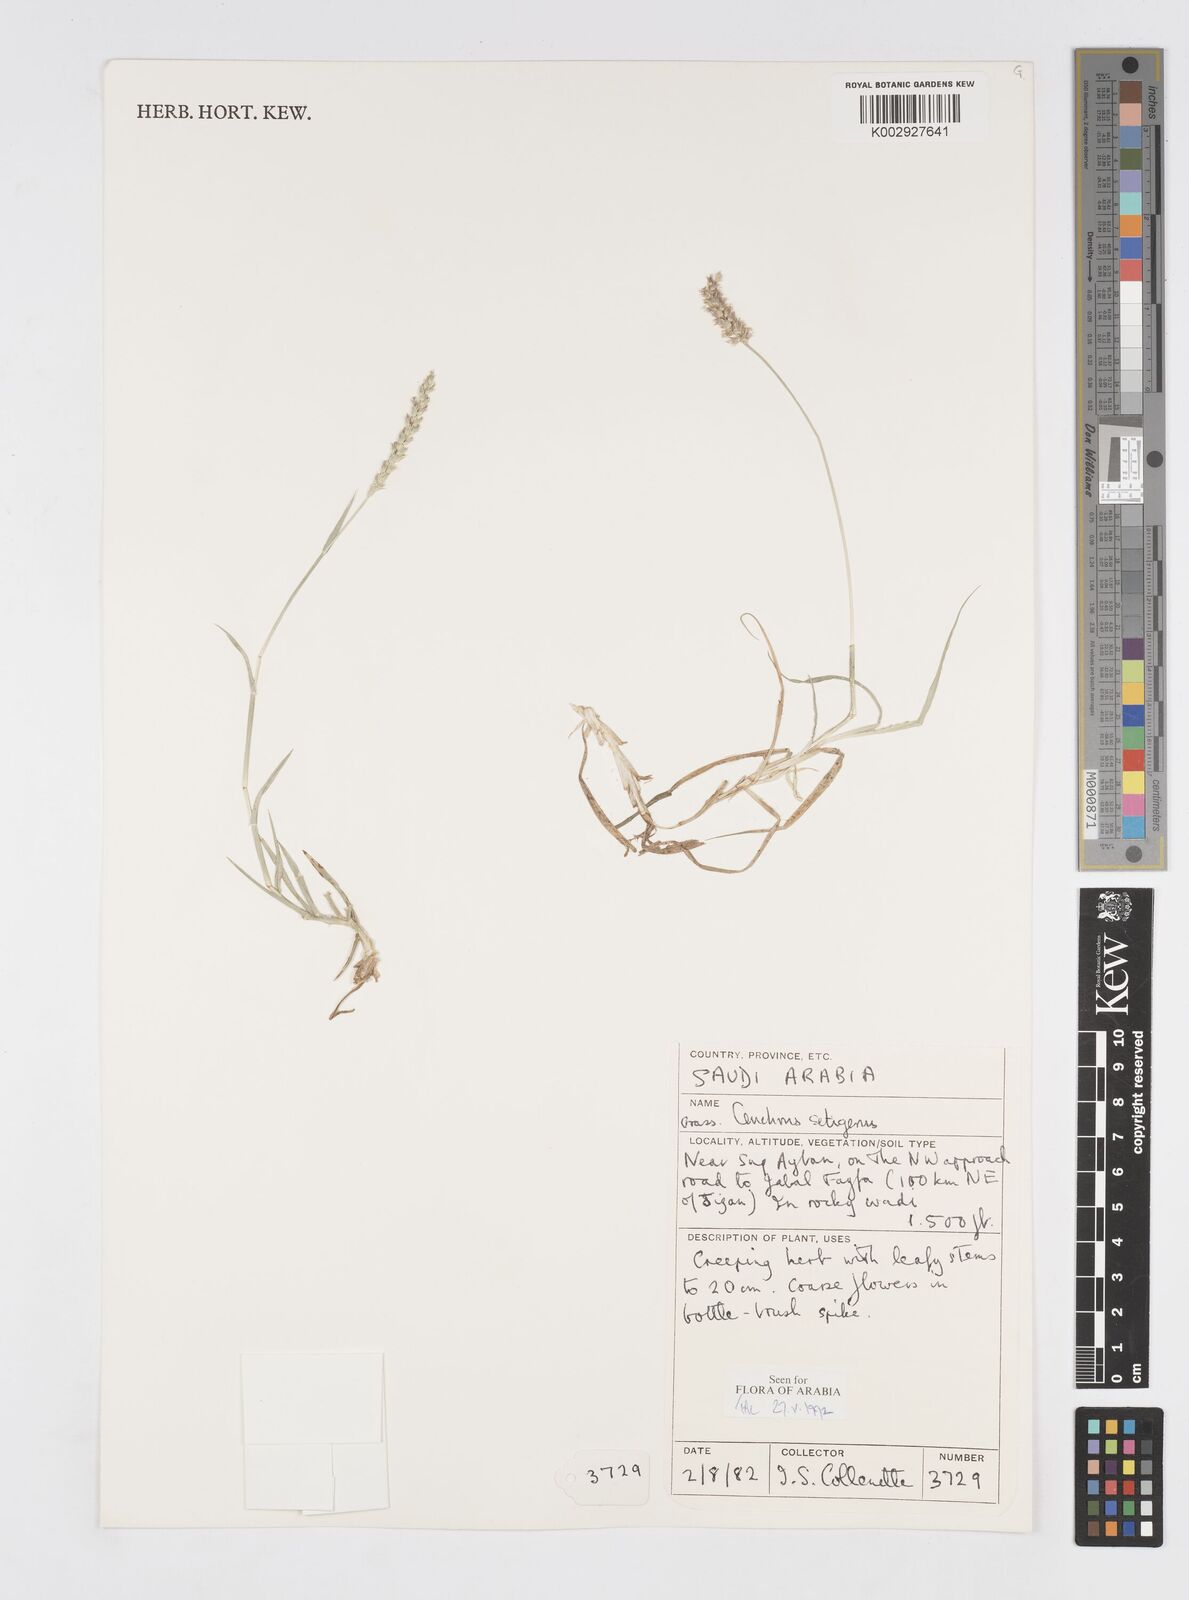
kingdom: Plantae
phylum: Tracheophyta
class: Liliopsida
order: Poales
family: Poaceae
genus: Cenchrus
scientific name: Cenchrus setigerus
